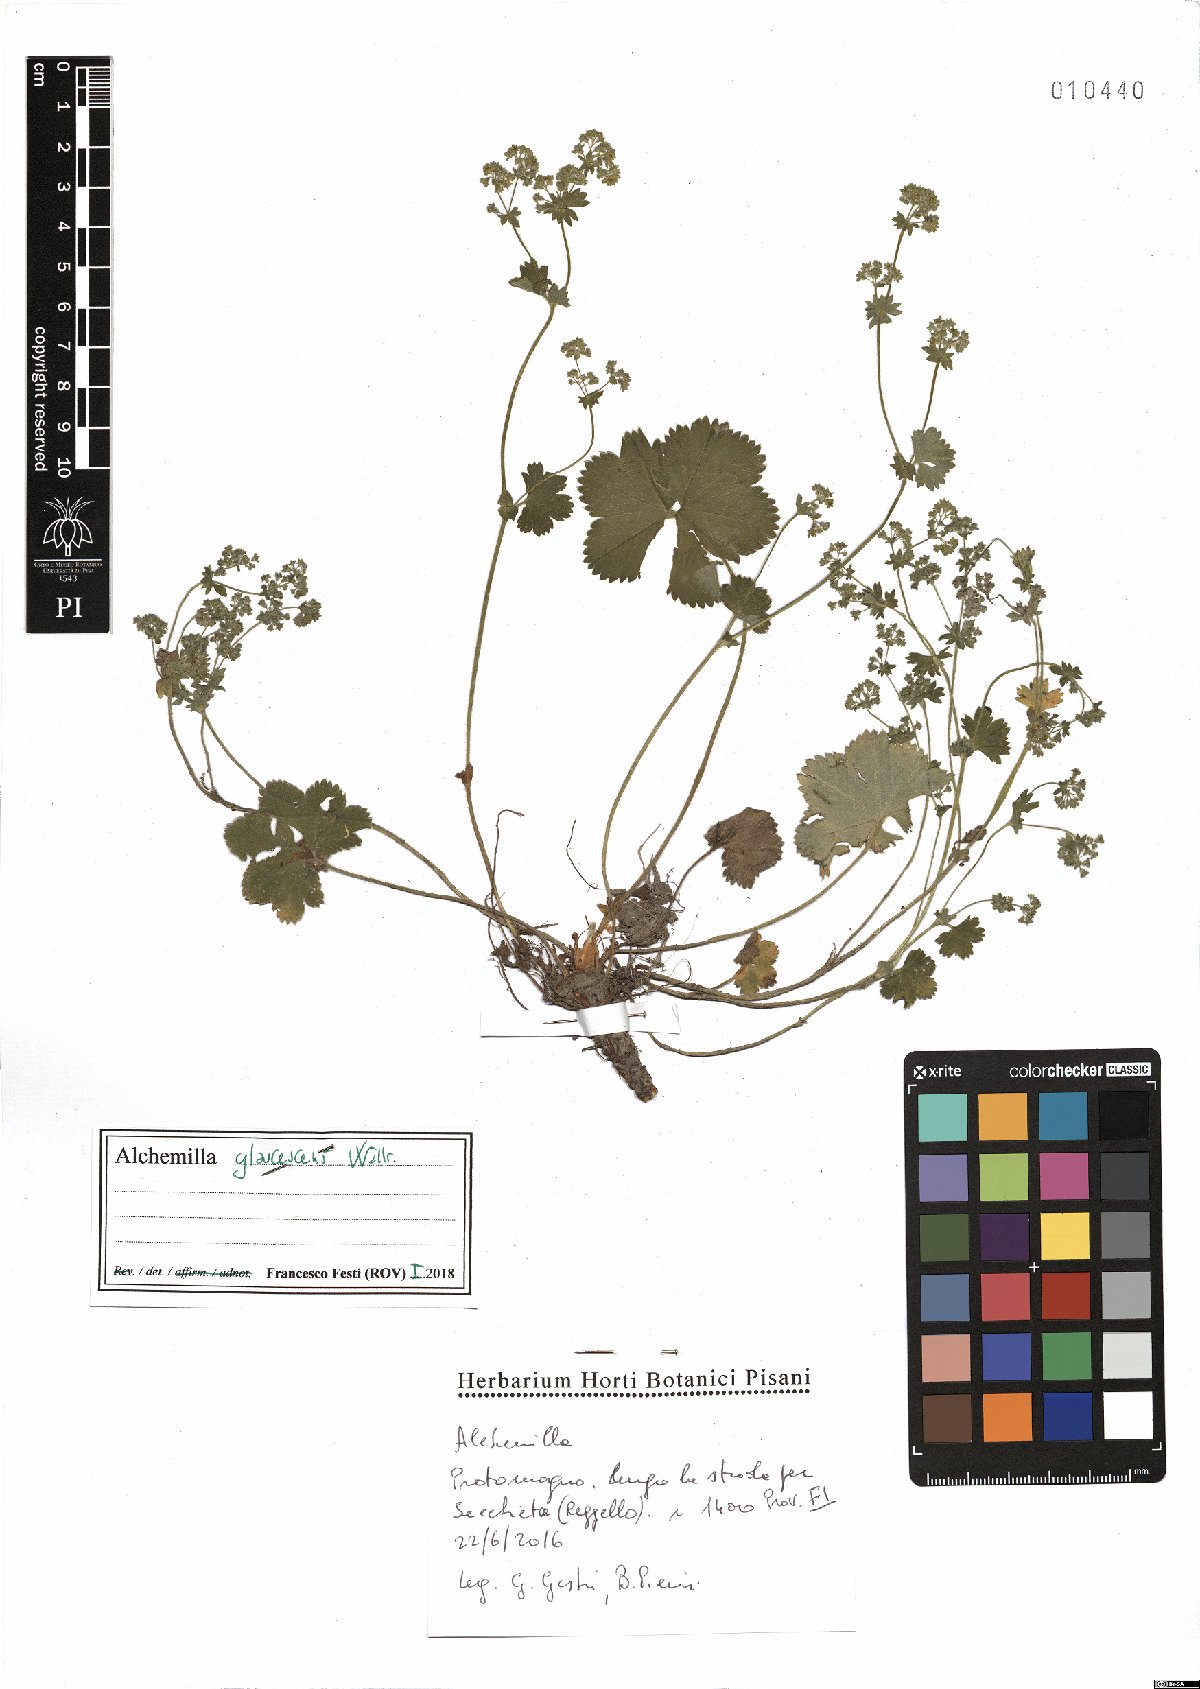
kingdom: Plantae
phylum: Tracheophyta
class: Magnoliopsida
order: Rosales
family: Rosaceae
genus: Alchemilla
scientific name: Alchemilla glaucescens
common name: Silky lady's mantle
